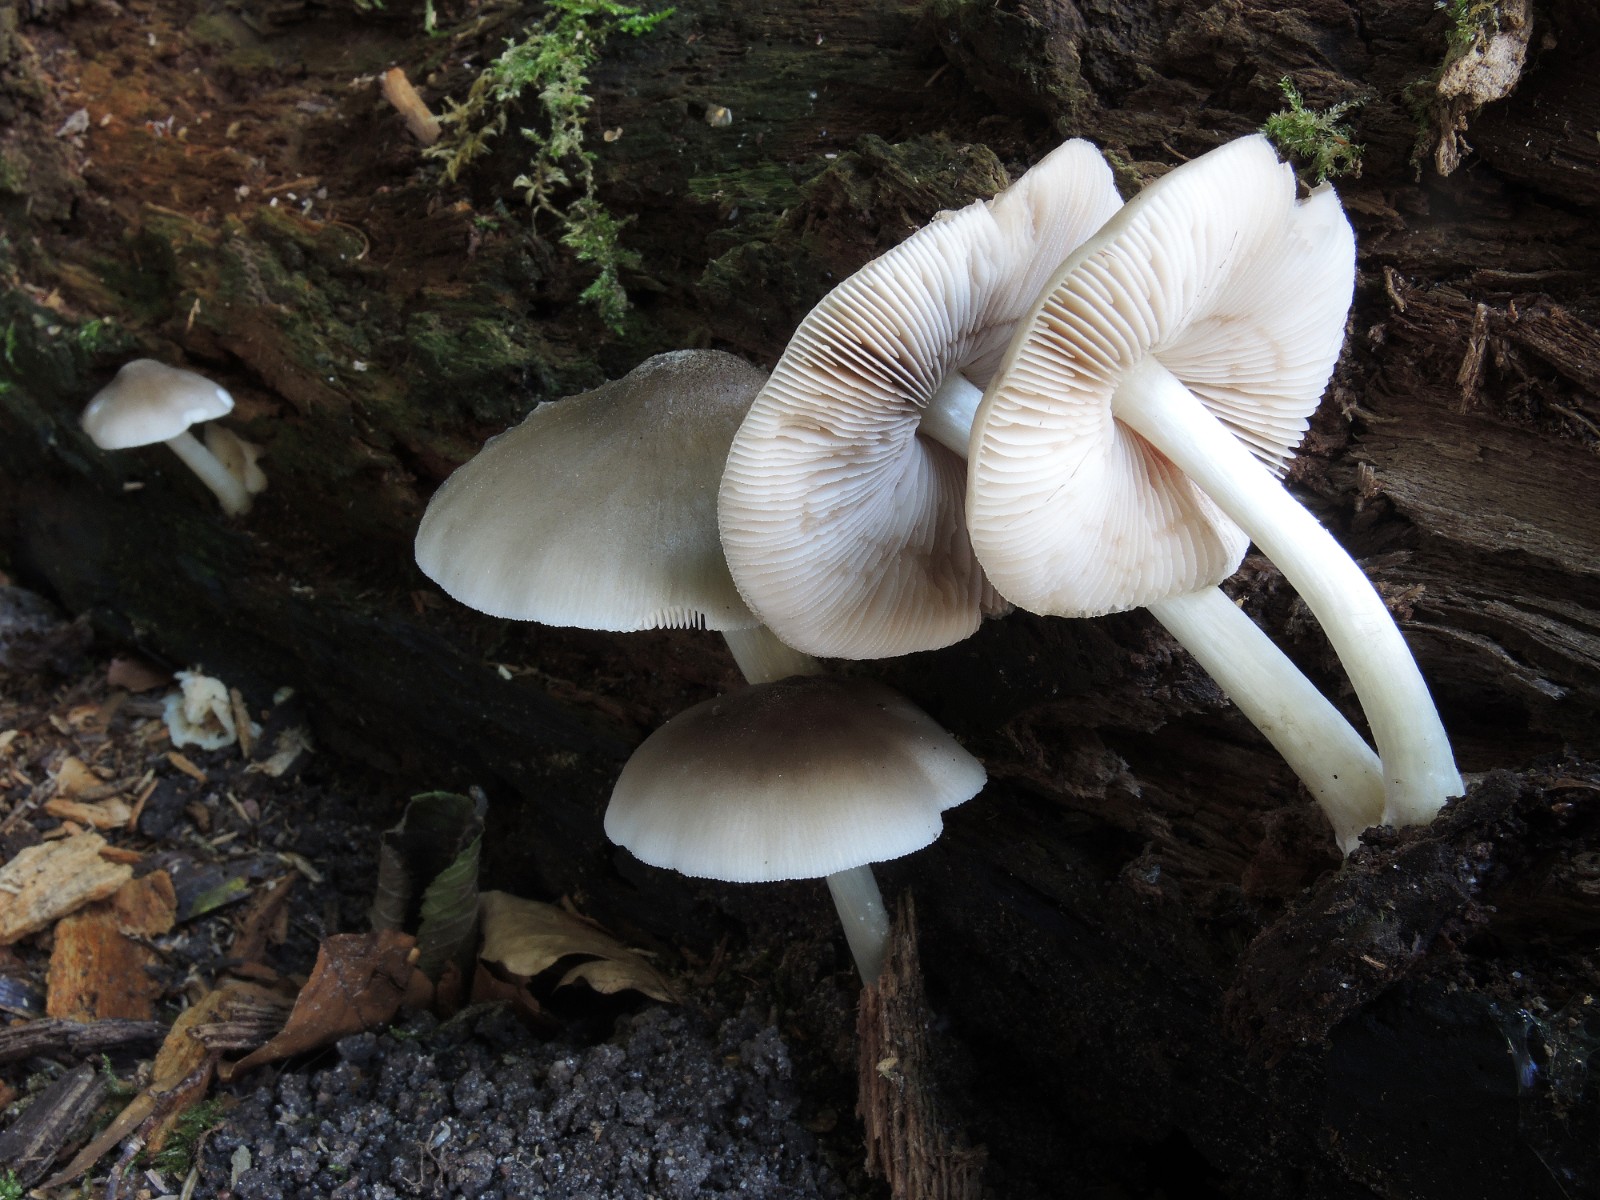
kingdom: Fungi
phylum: Basidiomycota
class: Agaricomycetes
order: Agaricales
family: Pluteaceae
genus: Pluteus
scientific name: Pluteus salicinus
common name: stiv skærmhat
